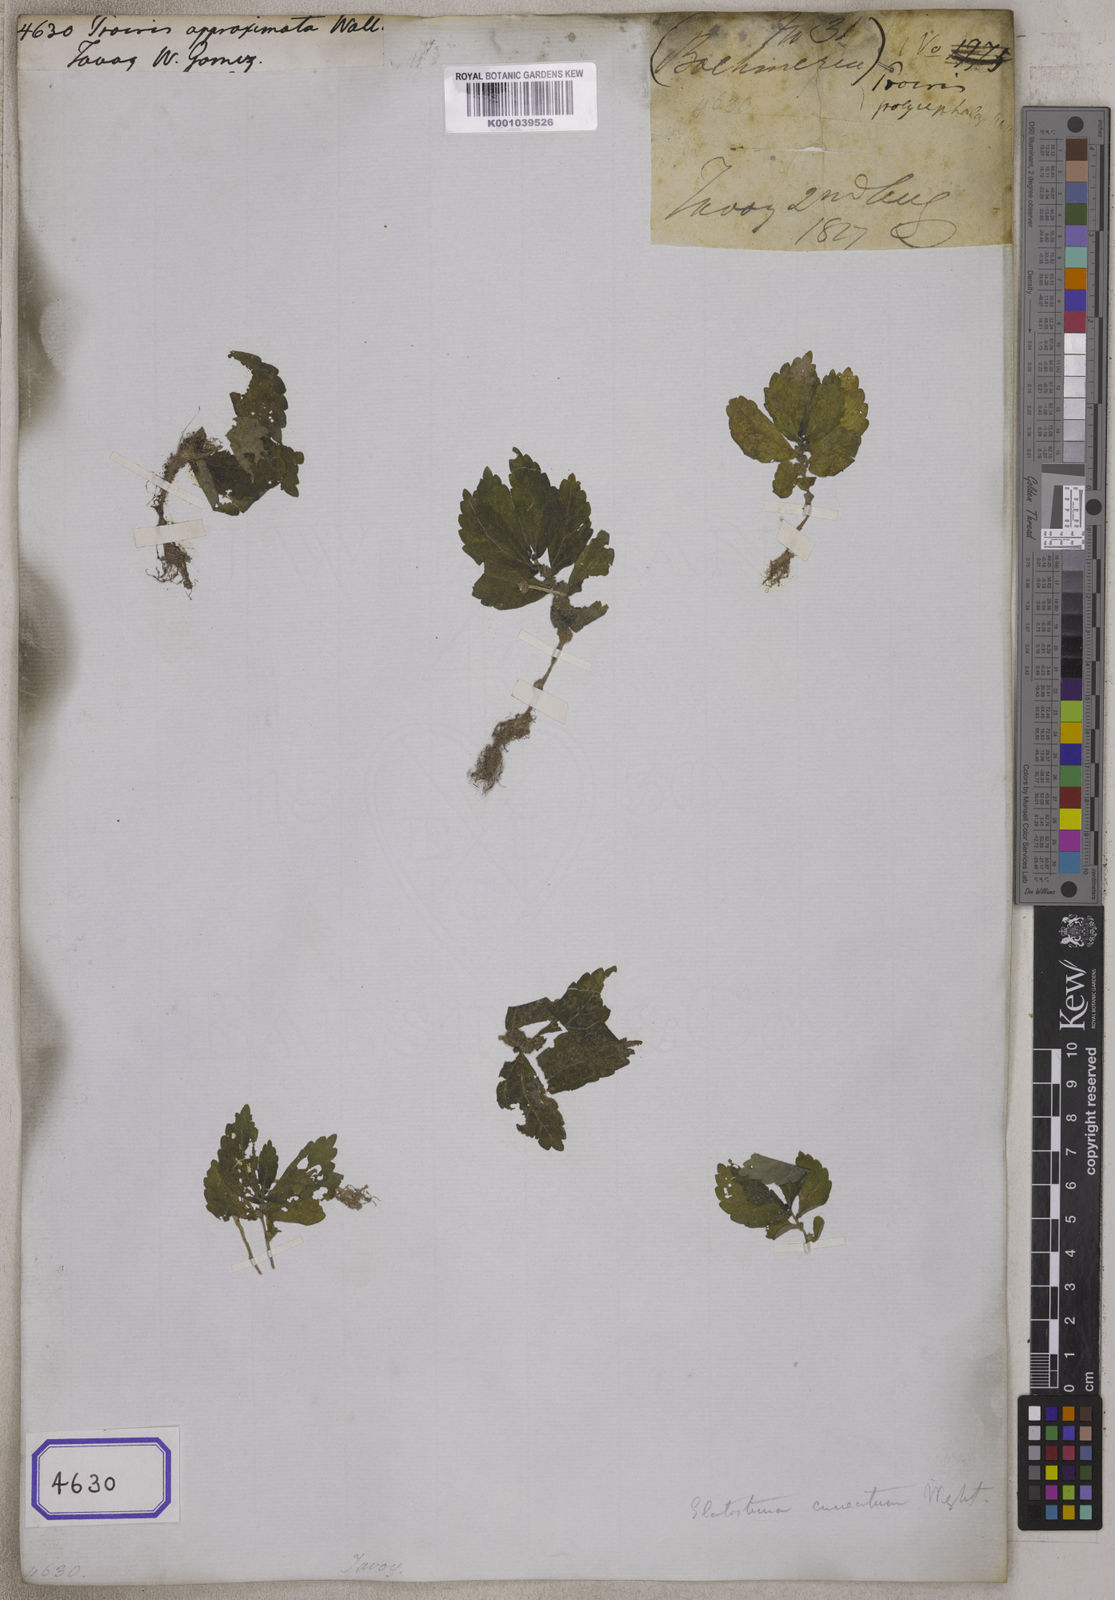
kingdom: Plantae
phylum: Tracheophyta
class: Magnoliopsida
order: Rosales
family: Urticaceae
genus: Elatostema
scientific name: Elatostema cuneatum
